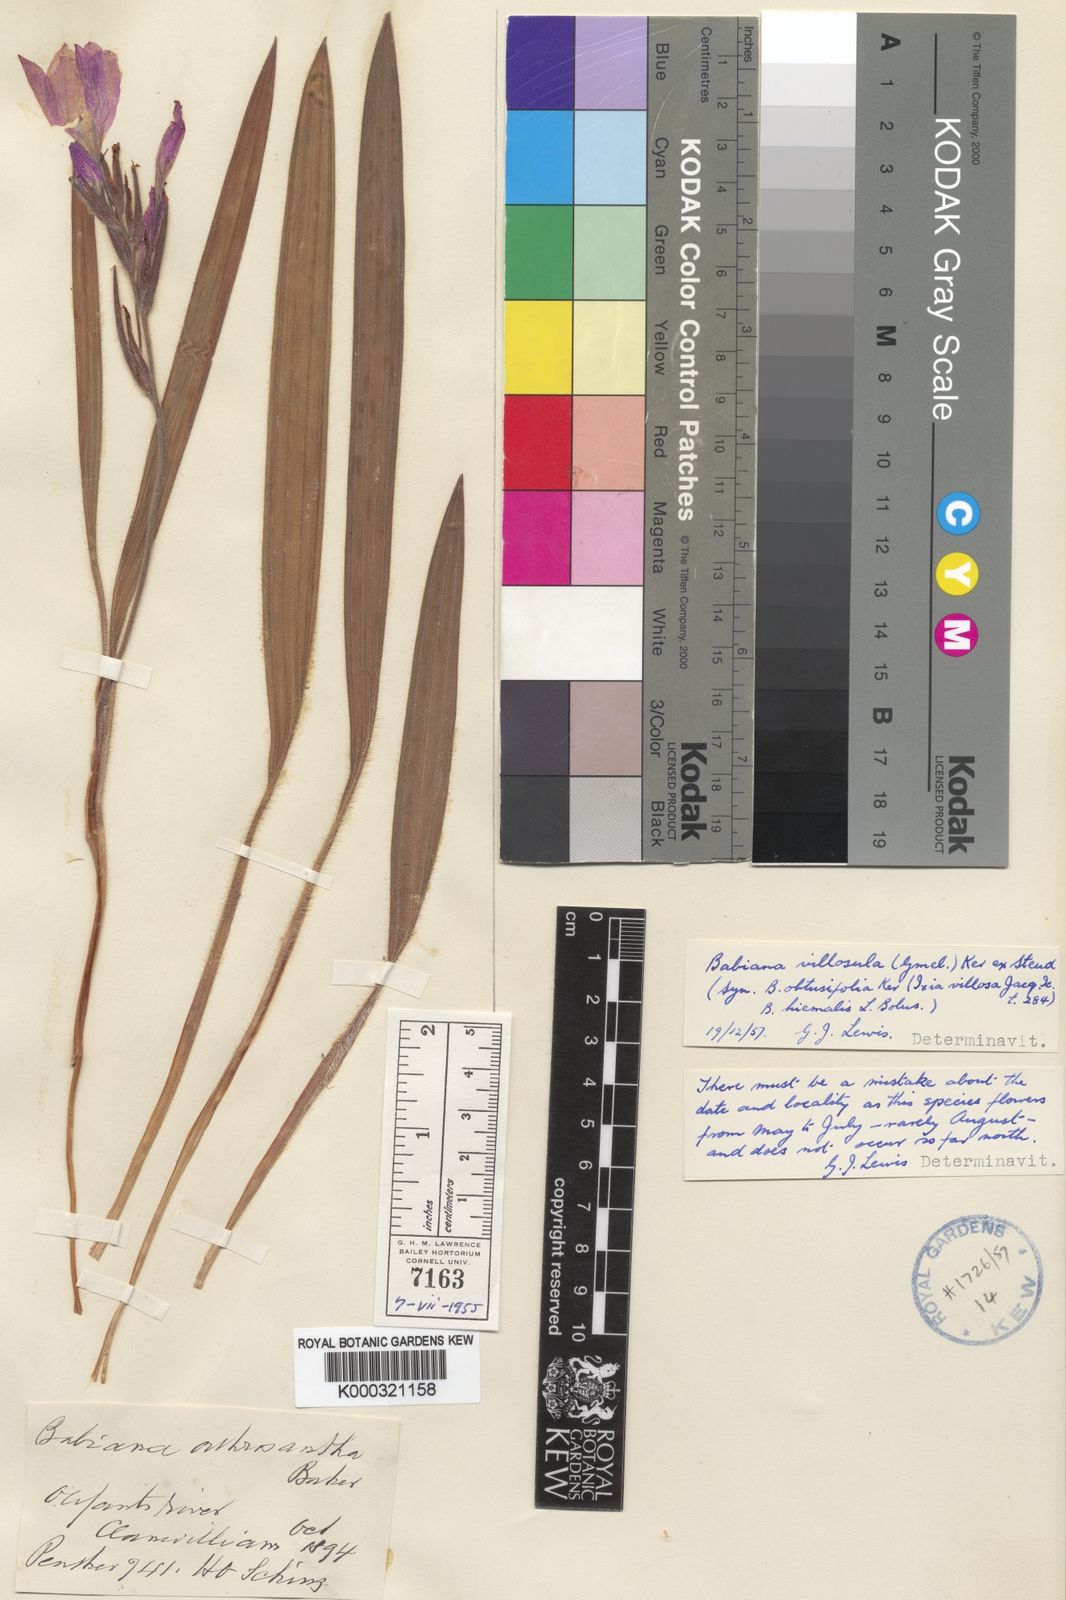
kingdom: Plantae
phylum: Tracheophyta
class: Liliopsida
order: Asparagales
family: Iridaceae
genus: Babiana
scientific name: Babiana villosula
